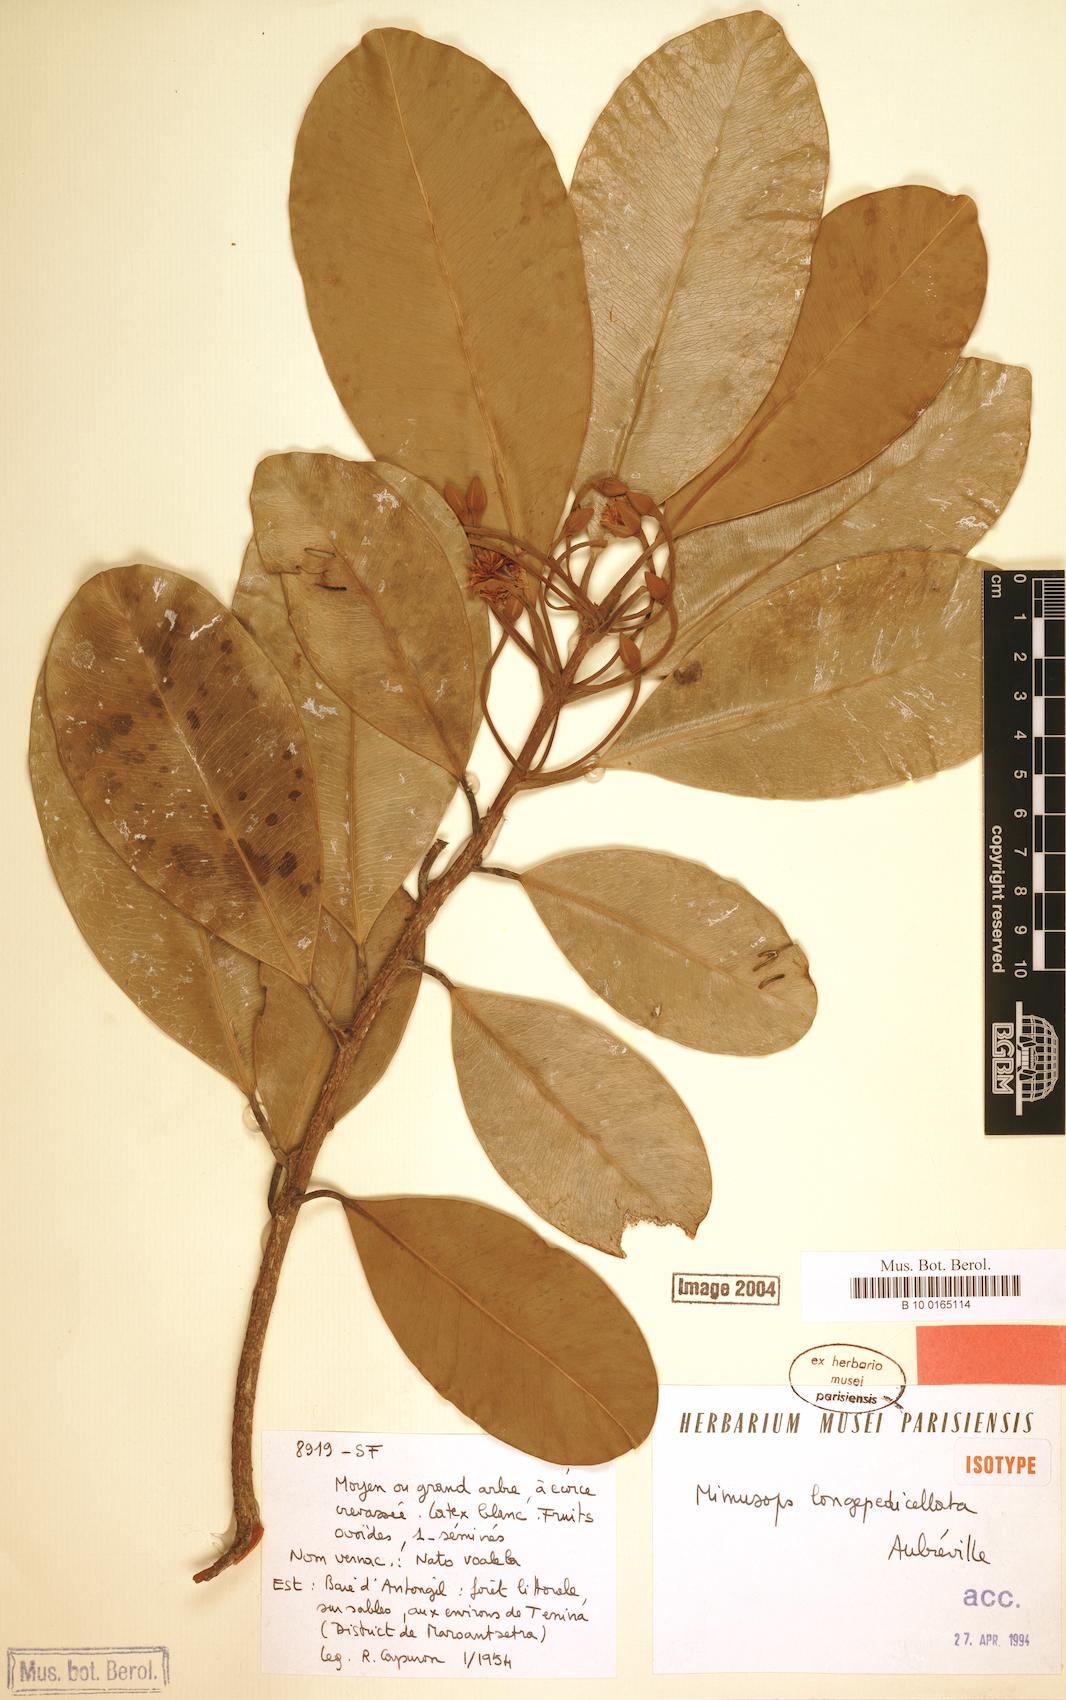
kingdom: Plantae
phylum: Tracheophyta
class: Magnoliopsida
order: Ericales
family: Sapotaceae
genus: Mimusops
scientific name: Mimusops longepedicellata
